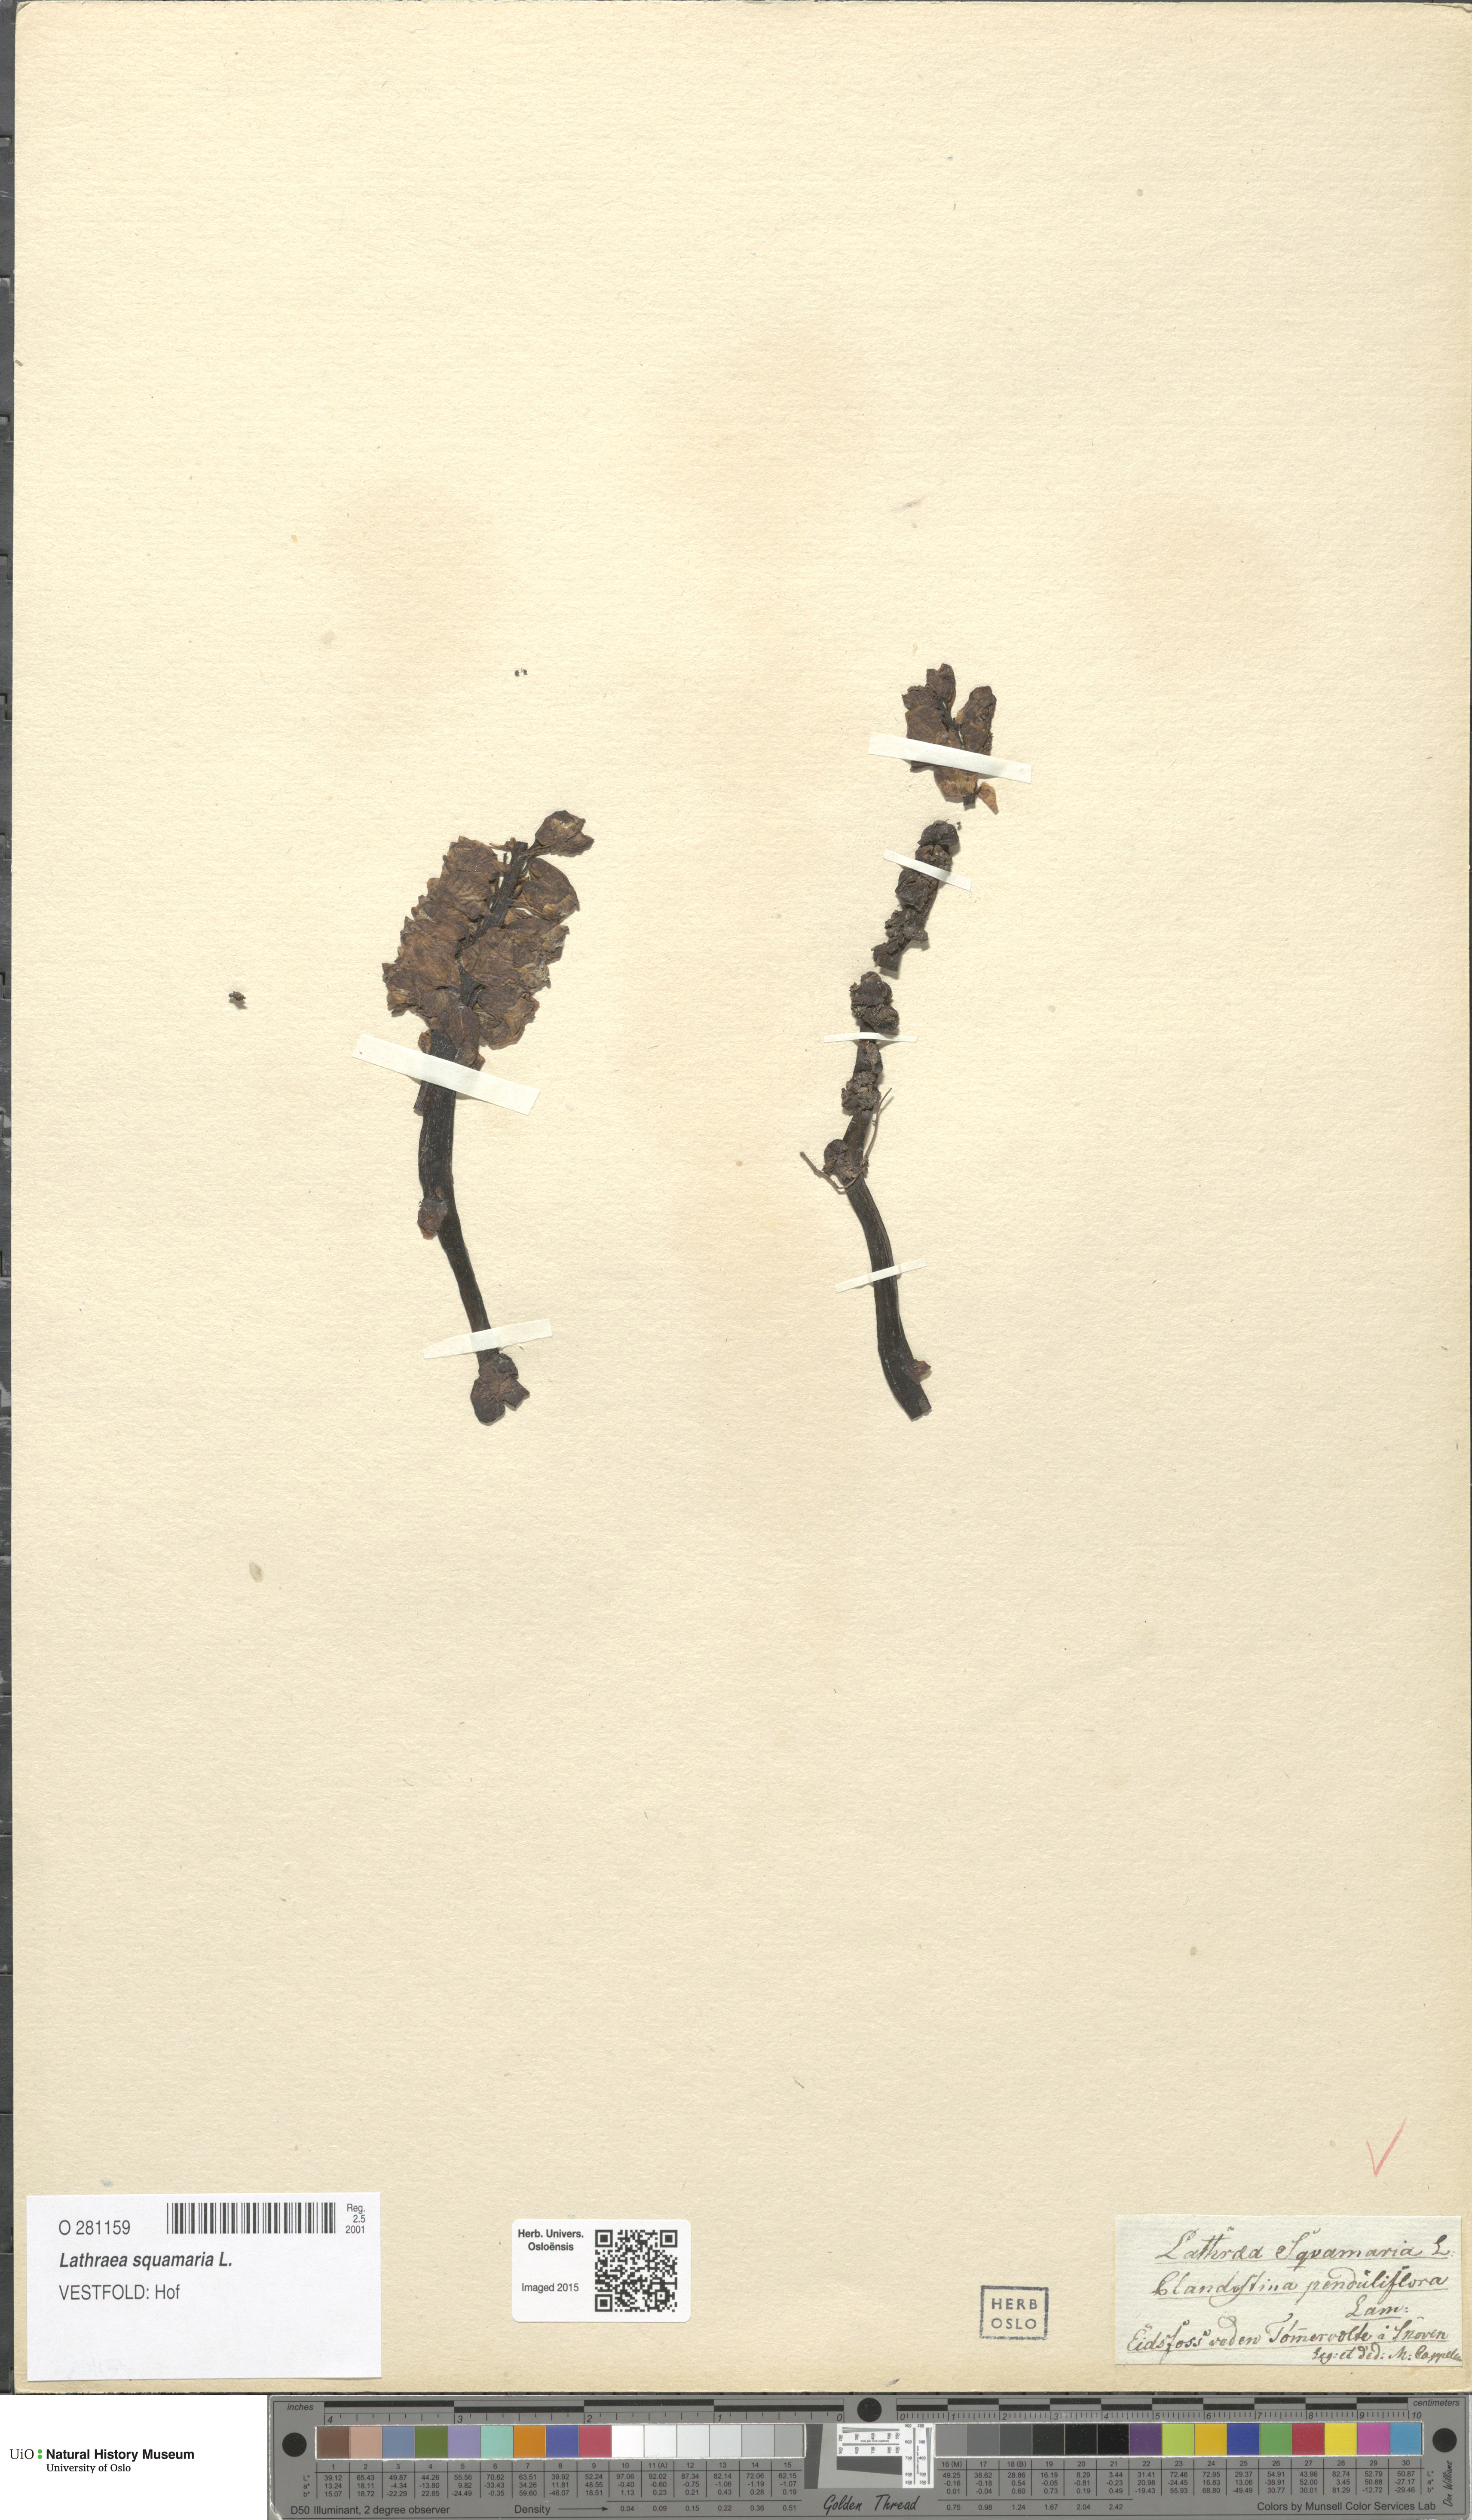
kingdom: Plantae
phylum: Tracheophyta
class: Magnoliopsida
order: Lamiales
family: Orobanchaceae
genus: Lathraea
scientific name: Lathraea squamaria
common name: Toothwort
